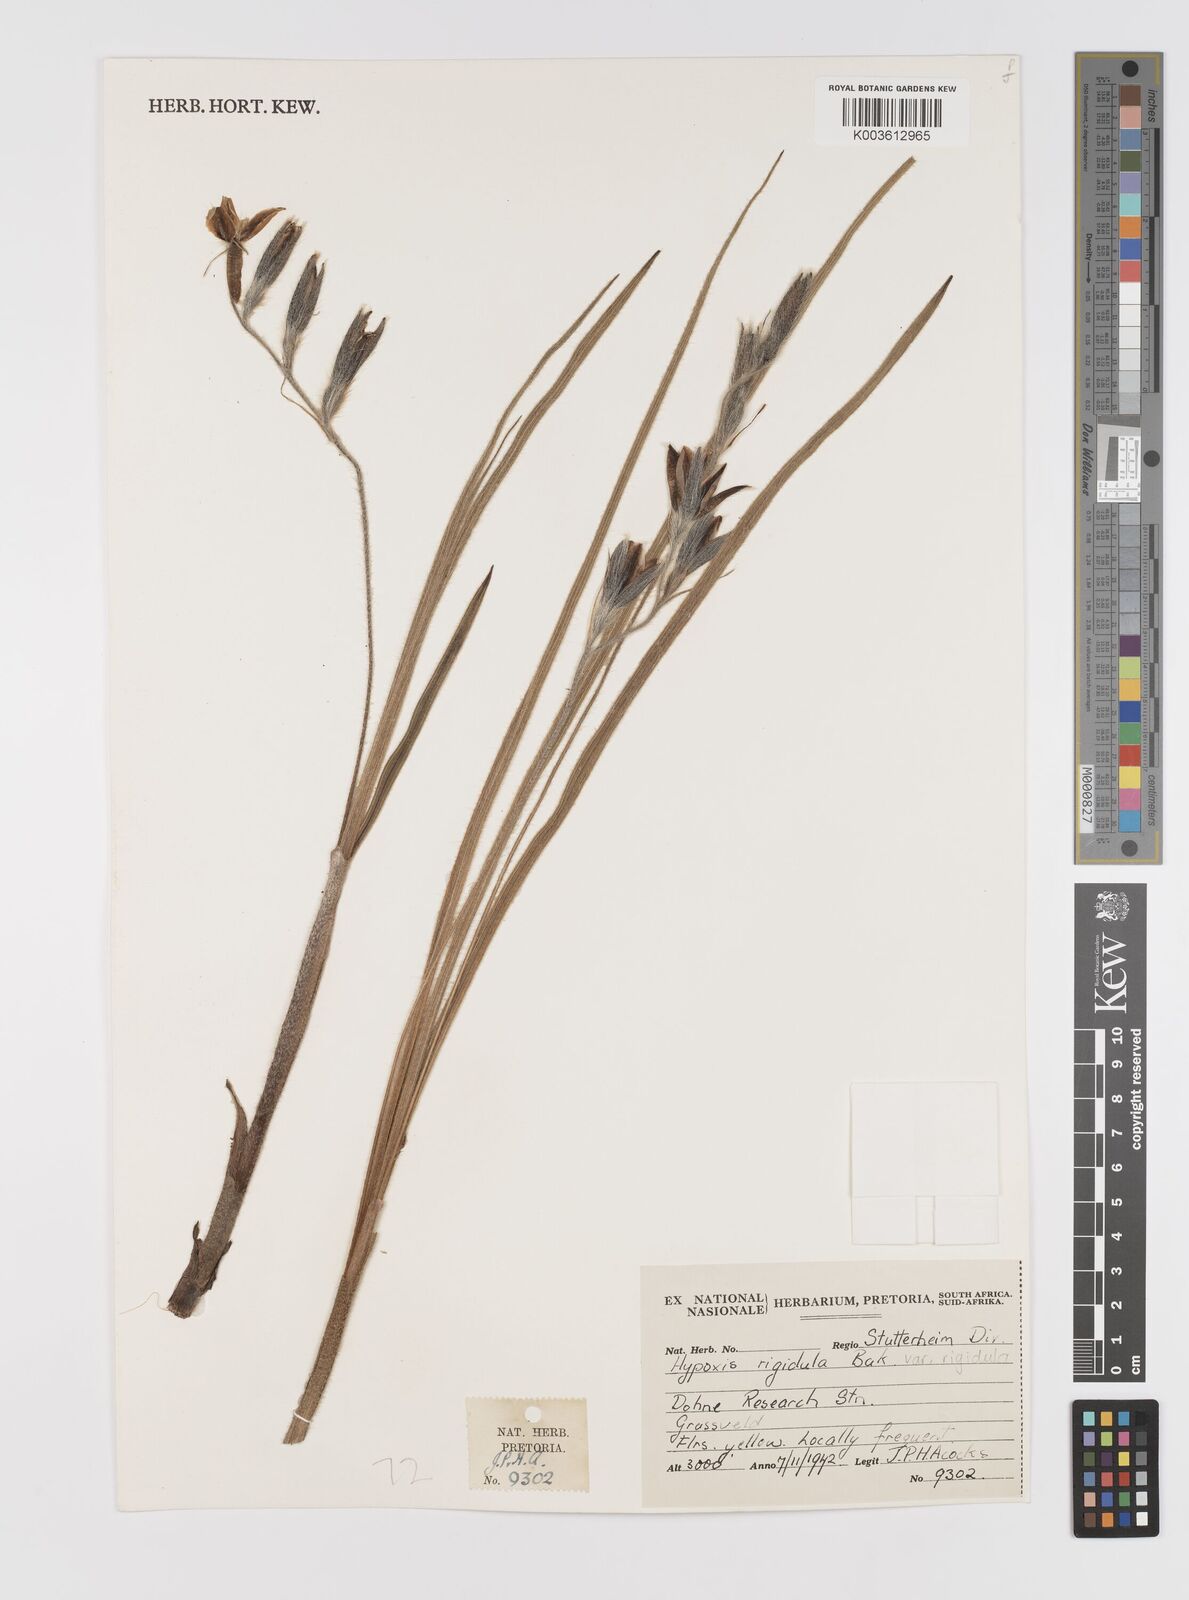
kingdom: Plantae
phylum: Tracheophyta
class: Liliopsida
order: Asparagales
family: Hypoxidaceae
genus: Hypoxis
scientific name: Hypoxis rigidula
